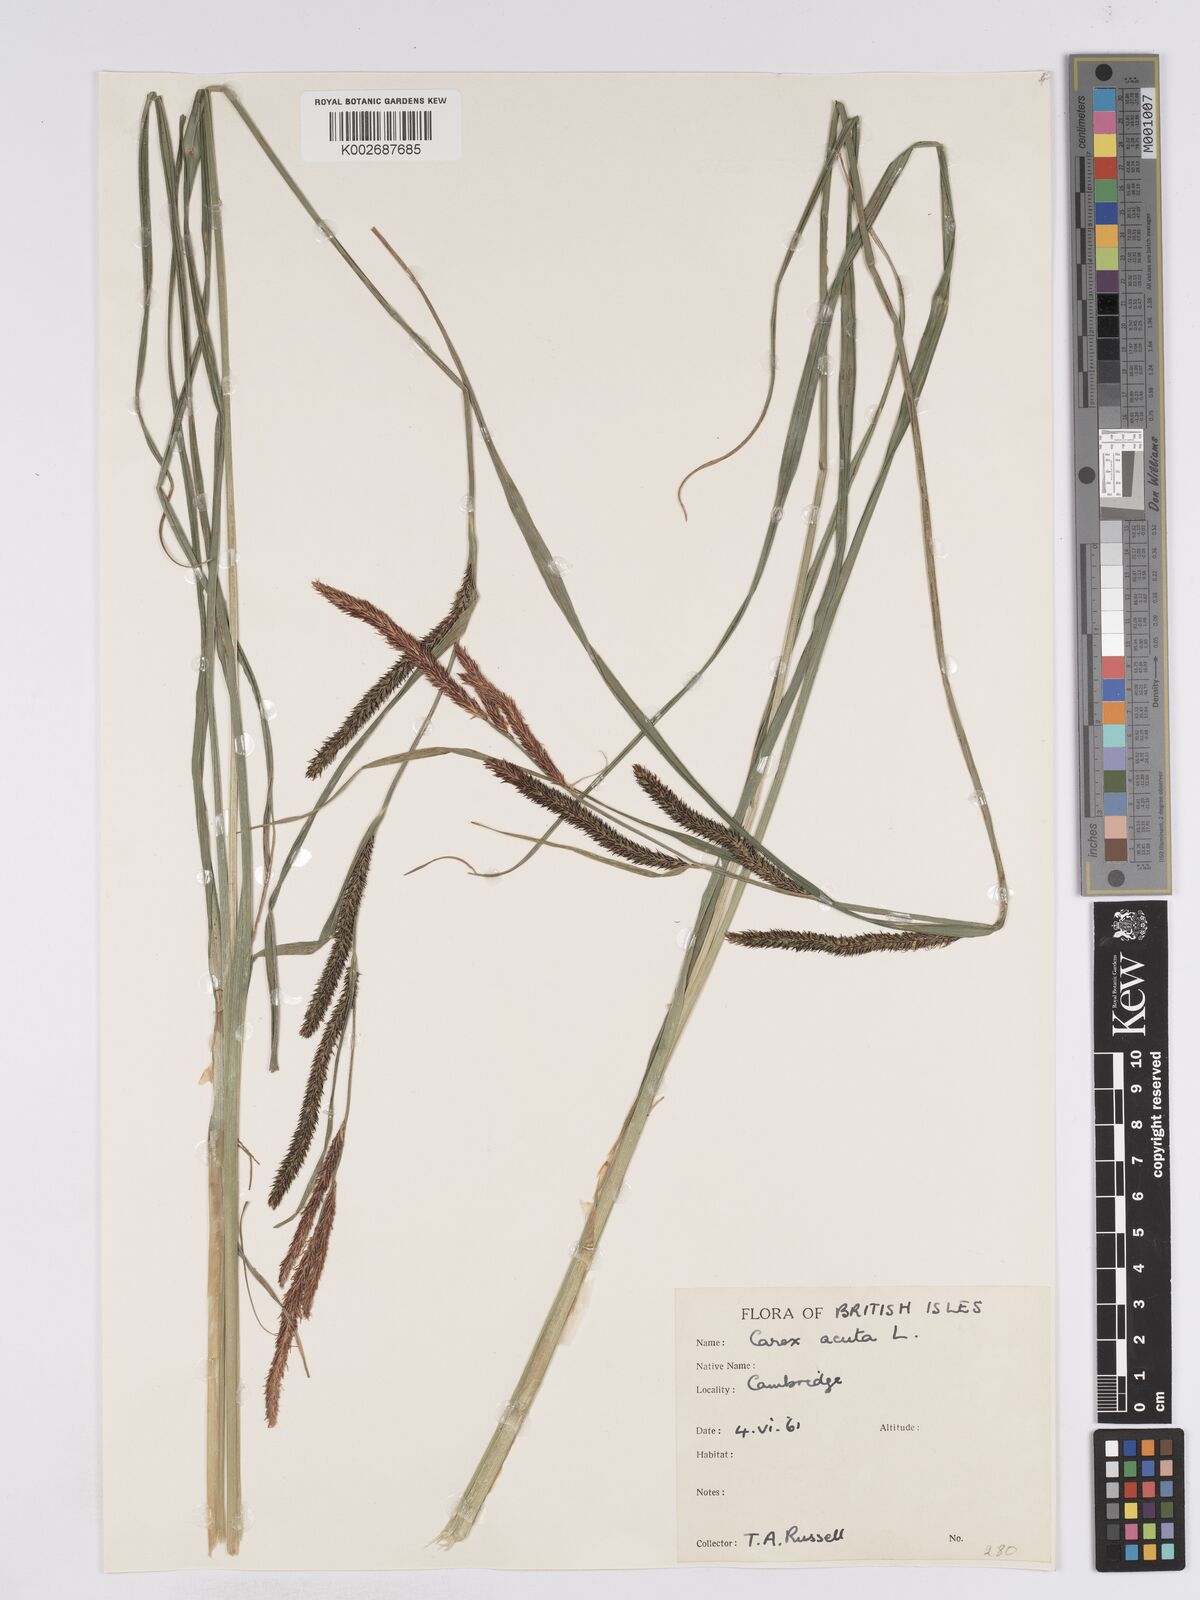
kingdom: Plantae
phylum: Tracheophyta
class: Liliopsida
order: Poales
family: Cyperaceae
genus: Carex
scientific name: Carex acuta
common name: Slender tufted-sedge
